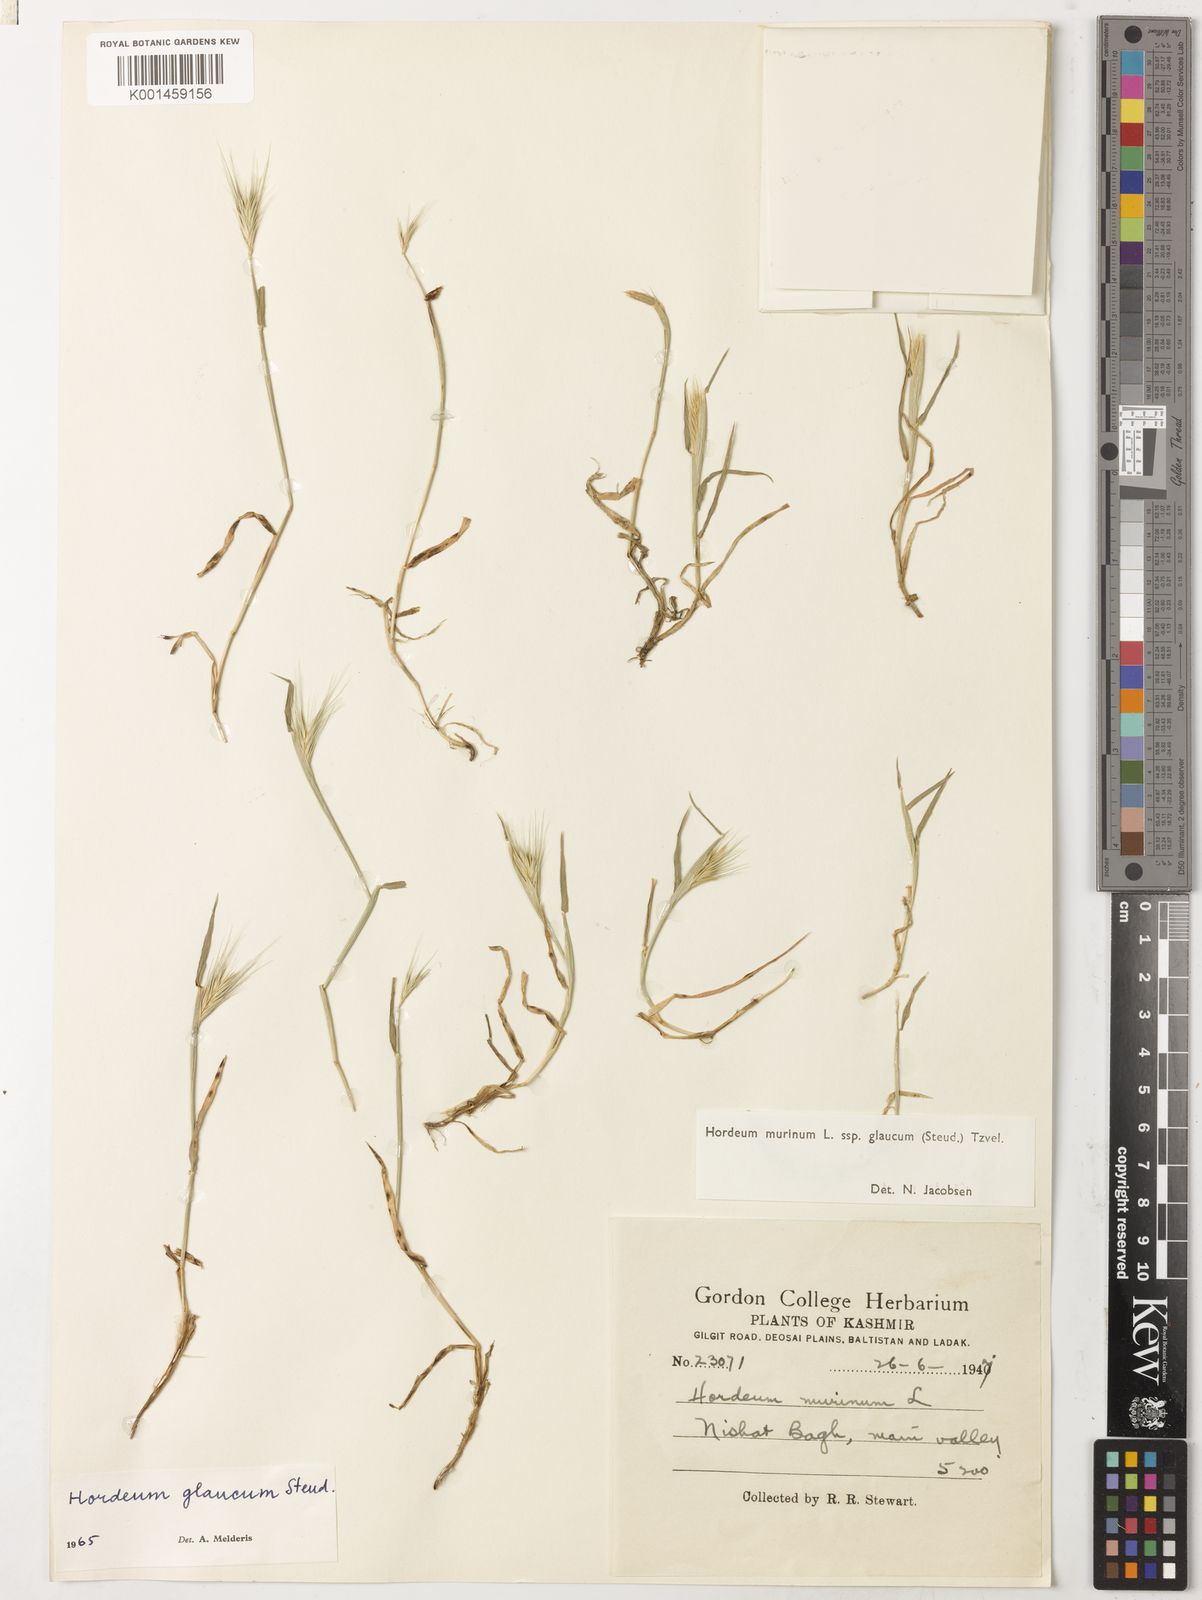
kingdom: Plantae
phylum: Tracheophyta
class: Liliopsida
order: Poales
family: Poaceae
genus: Hordeum
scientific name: Hordeum murinum
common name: Wall barley
